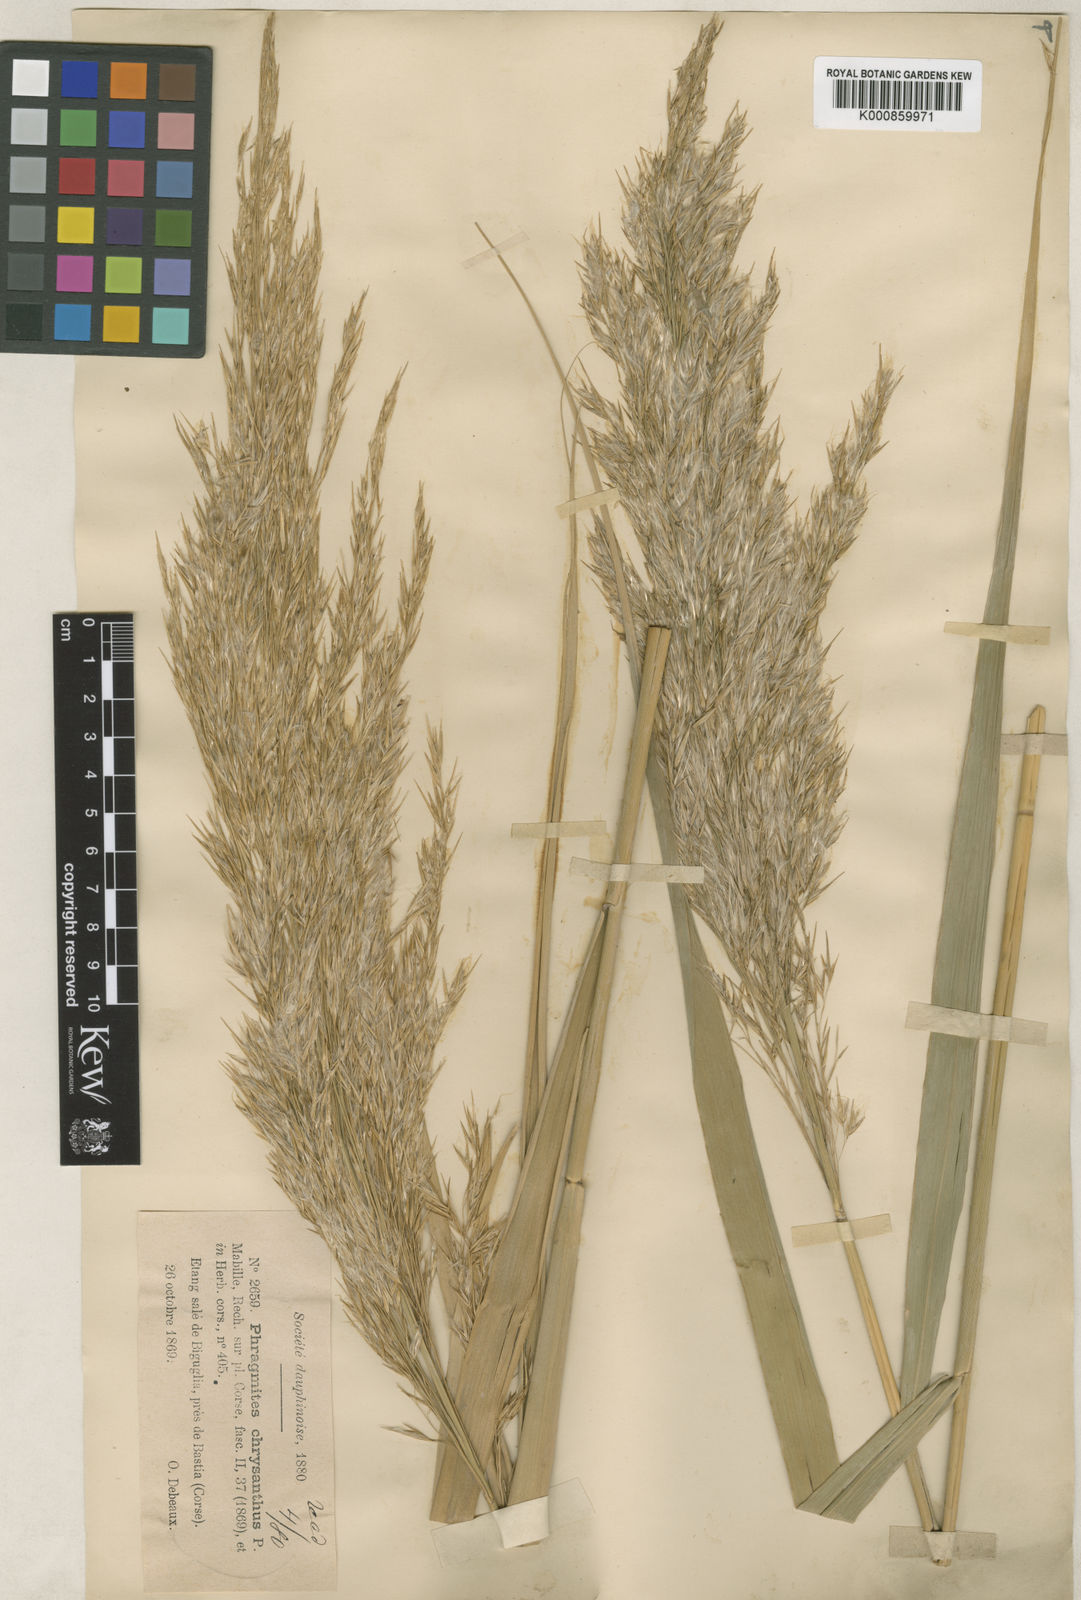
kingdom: Plantae
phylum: Tracheophyta
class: Liliopsida
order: Poales
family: Poaceae
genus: Phragmites
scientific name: Phragmites australis
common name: Common reed
